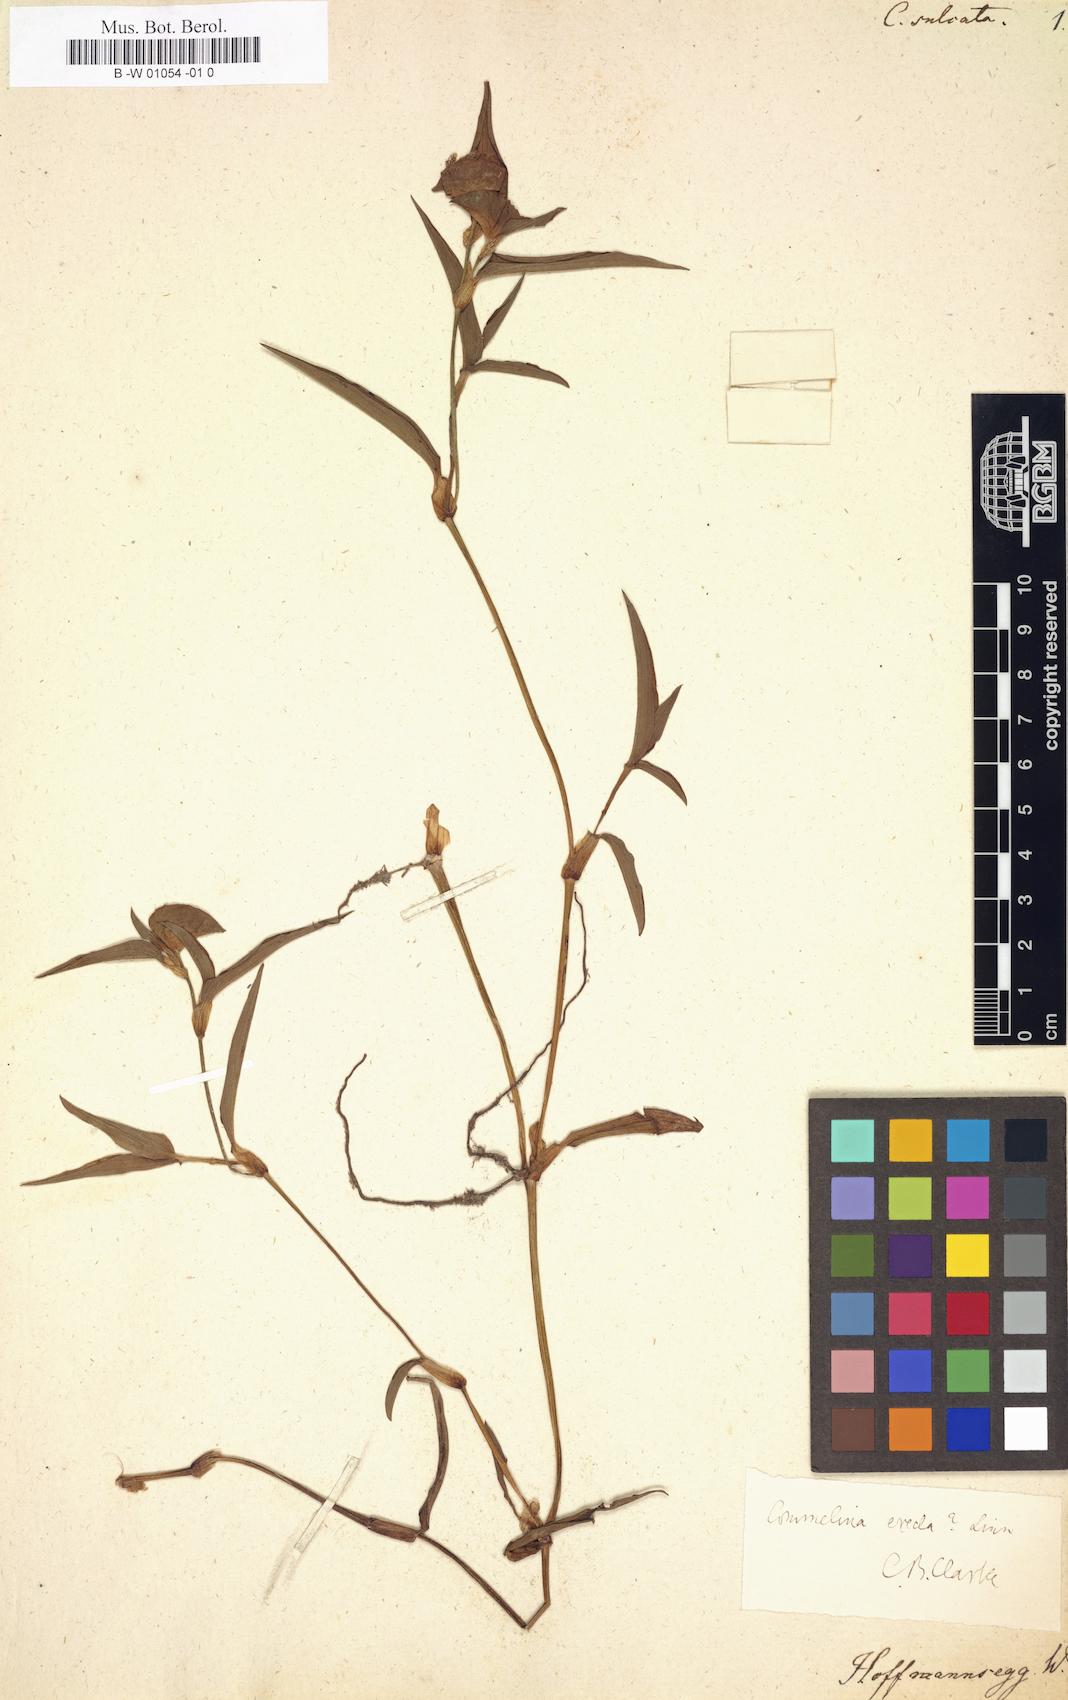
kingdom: Plantae
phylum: Tracheophyta
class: Liliopsida
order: Commelinales
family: Commelinaceae
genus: Commelina
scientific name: Commelina sulcata
